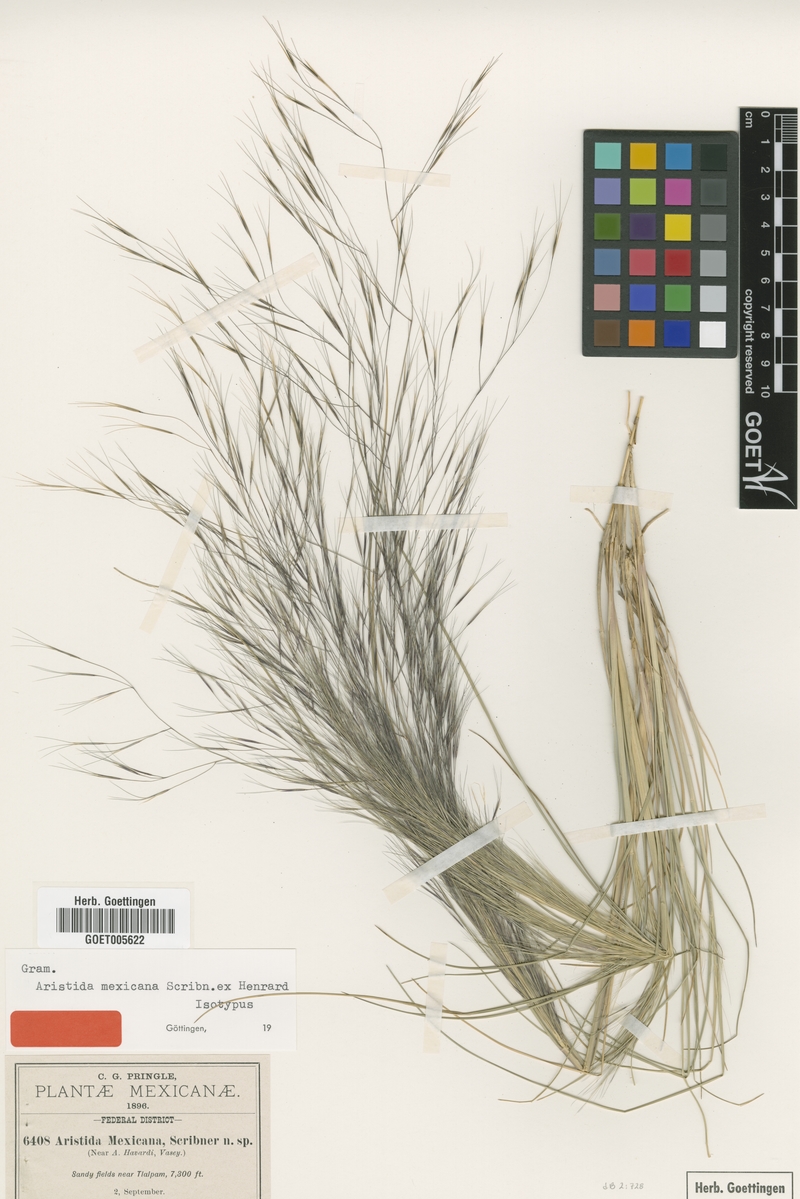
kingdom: Plantae
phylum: Tracheophyta
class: Liliopsida
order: Poales
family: Poaceae
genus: Aristida
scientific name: Aristida mexicana
